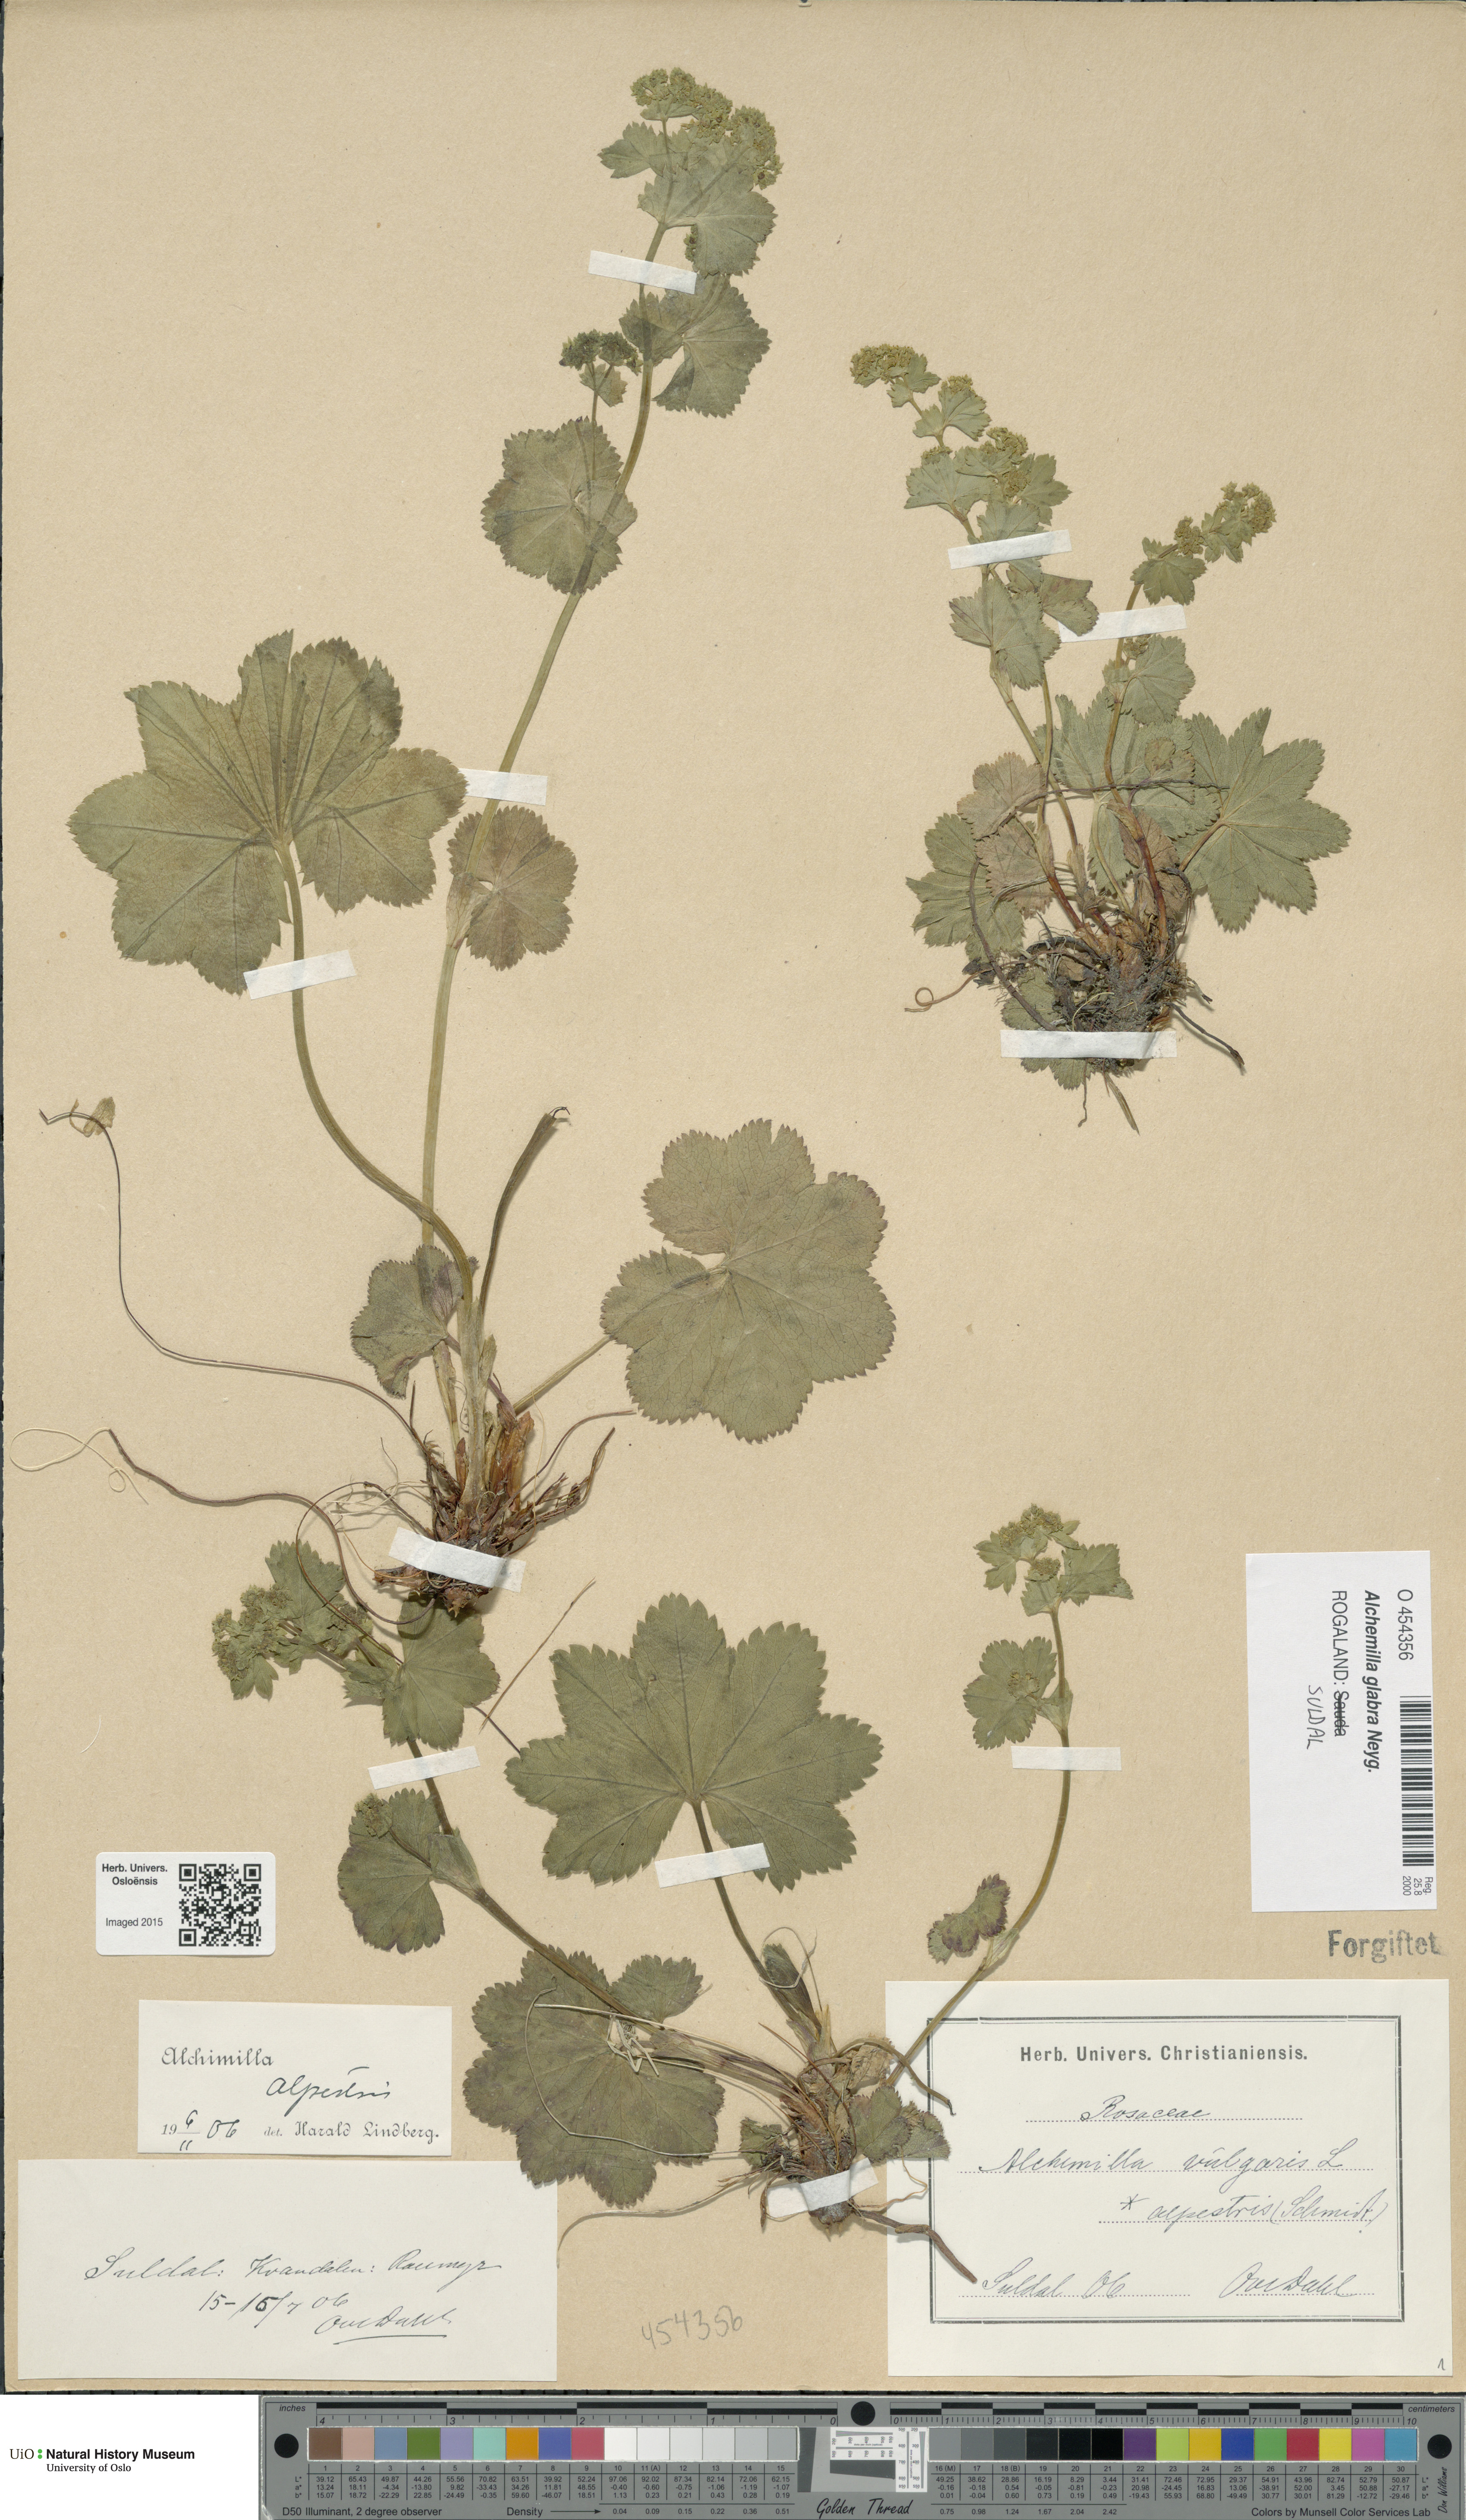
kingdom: Plantae
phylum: Tracheophyta
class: Magnoliopsida
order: Rosales
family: Rosaceae
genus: Alchemilla
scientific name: Alchemilla glabra
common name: Smooth lady's-mantle
